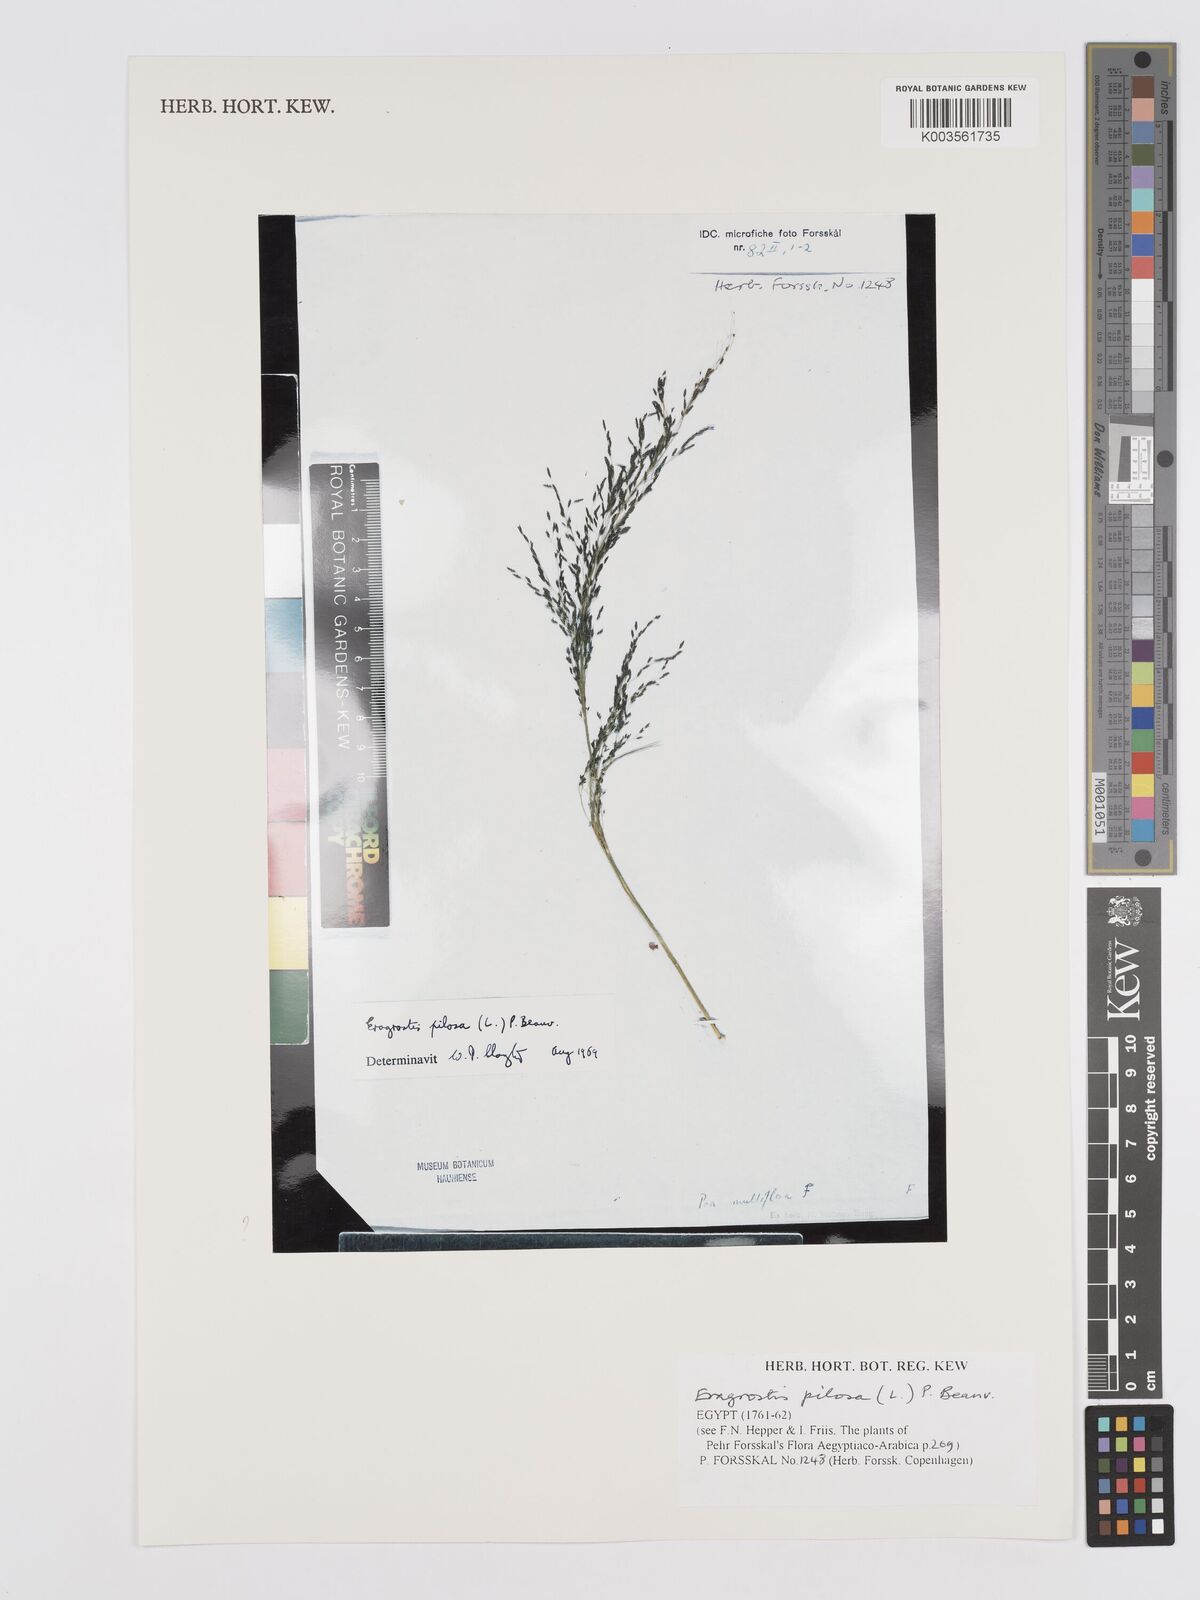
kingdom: Plantae
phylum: Tracheophyta
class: Liliopsida
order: Poales
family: Poaceae
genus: Eragrostis
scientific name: Eragrostis pilosa
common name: Indian lovegrass
